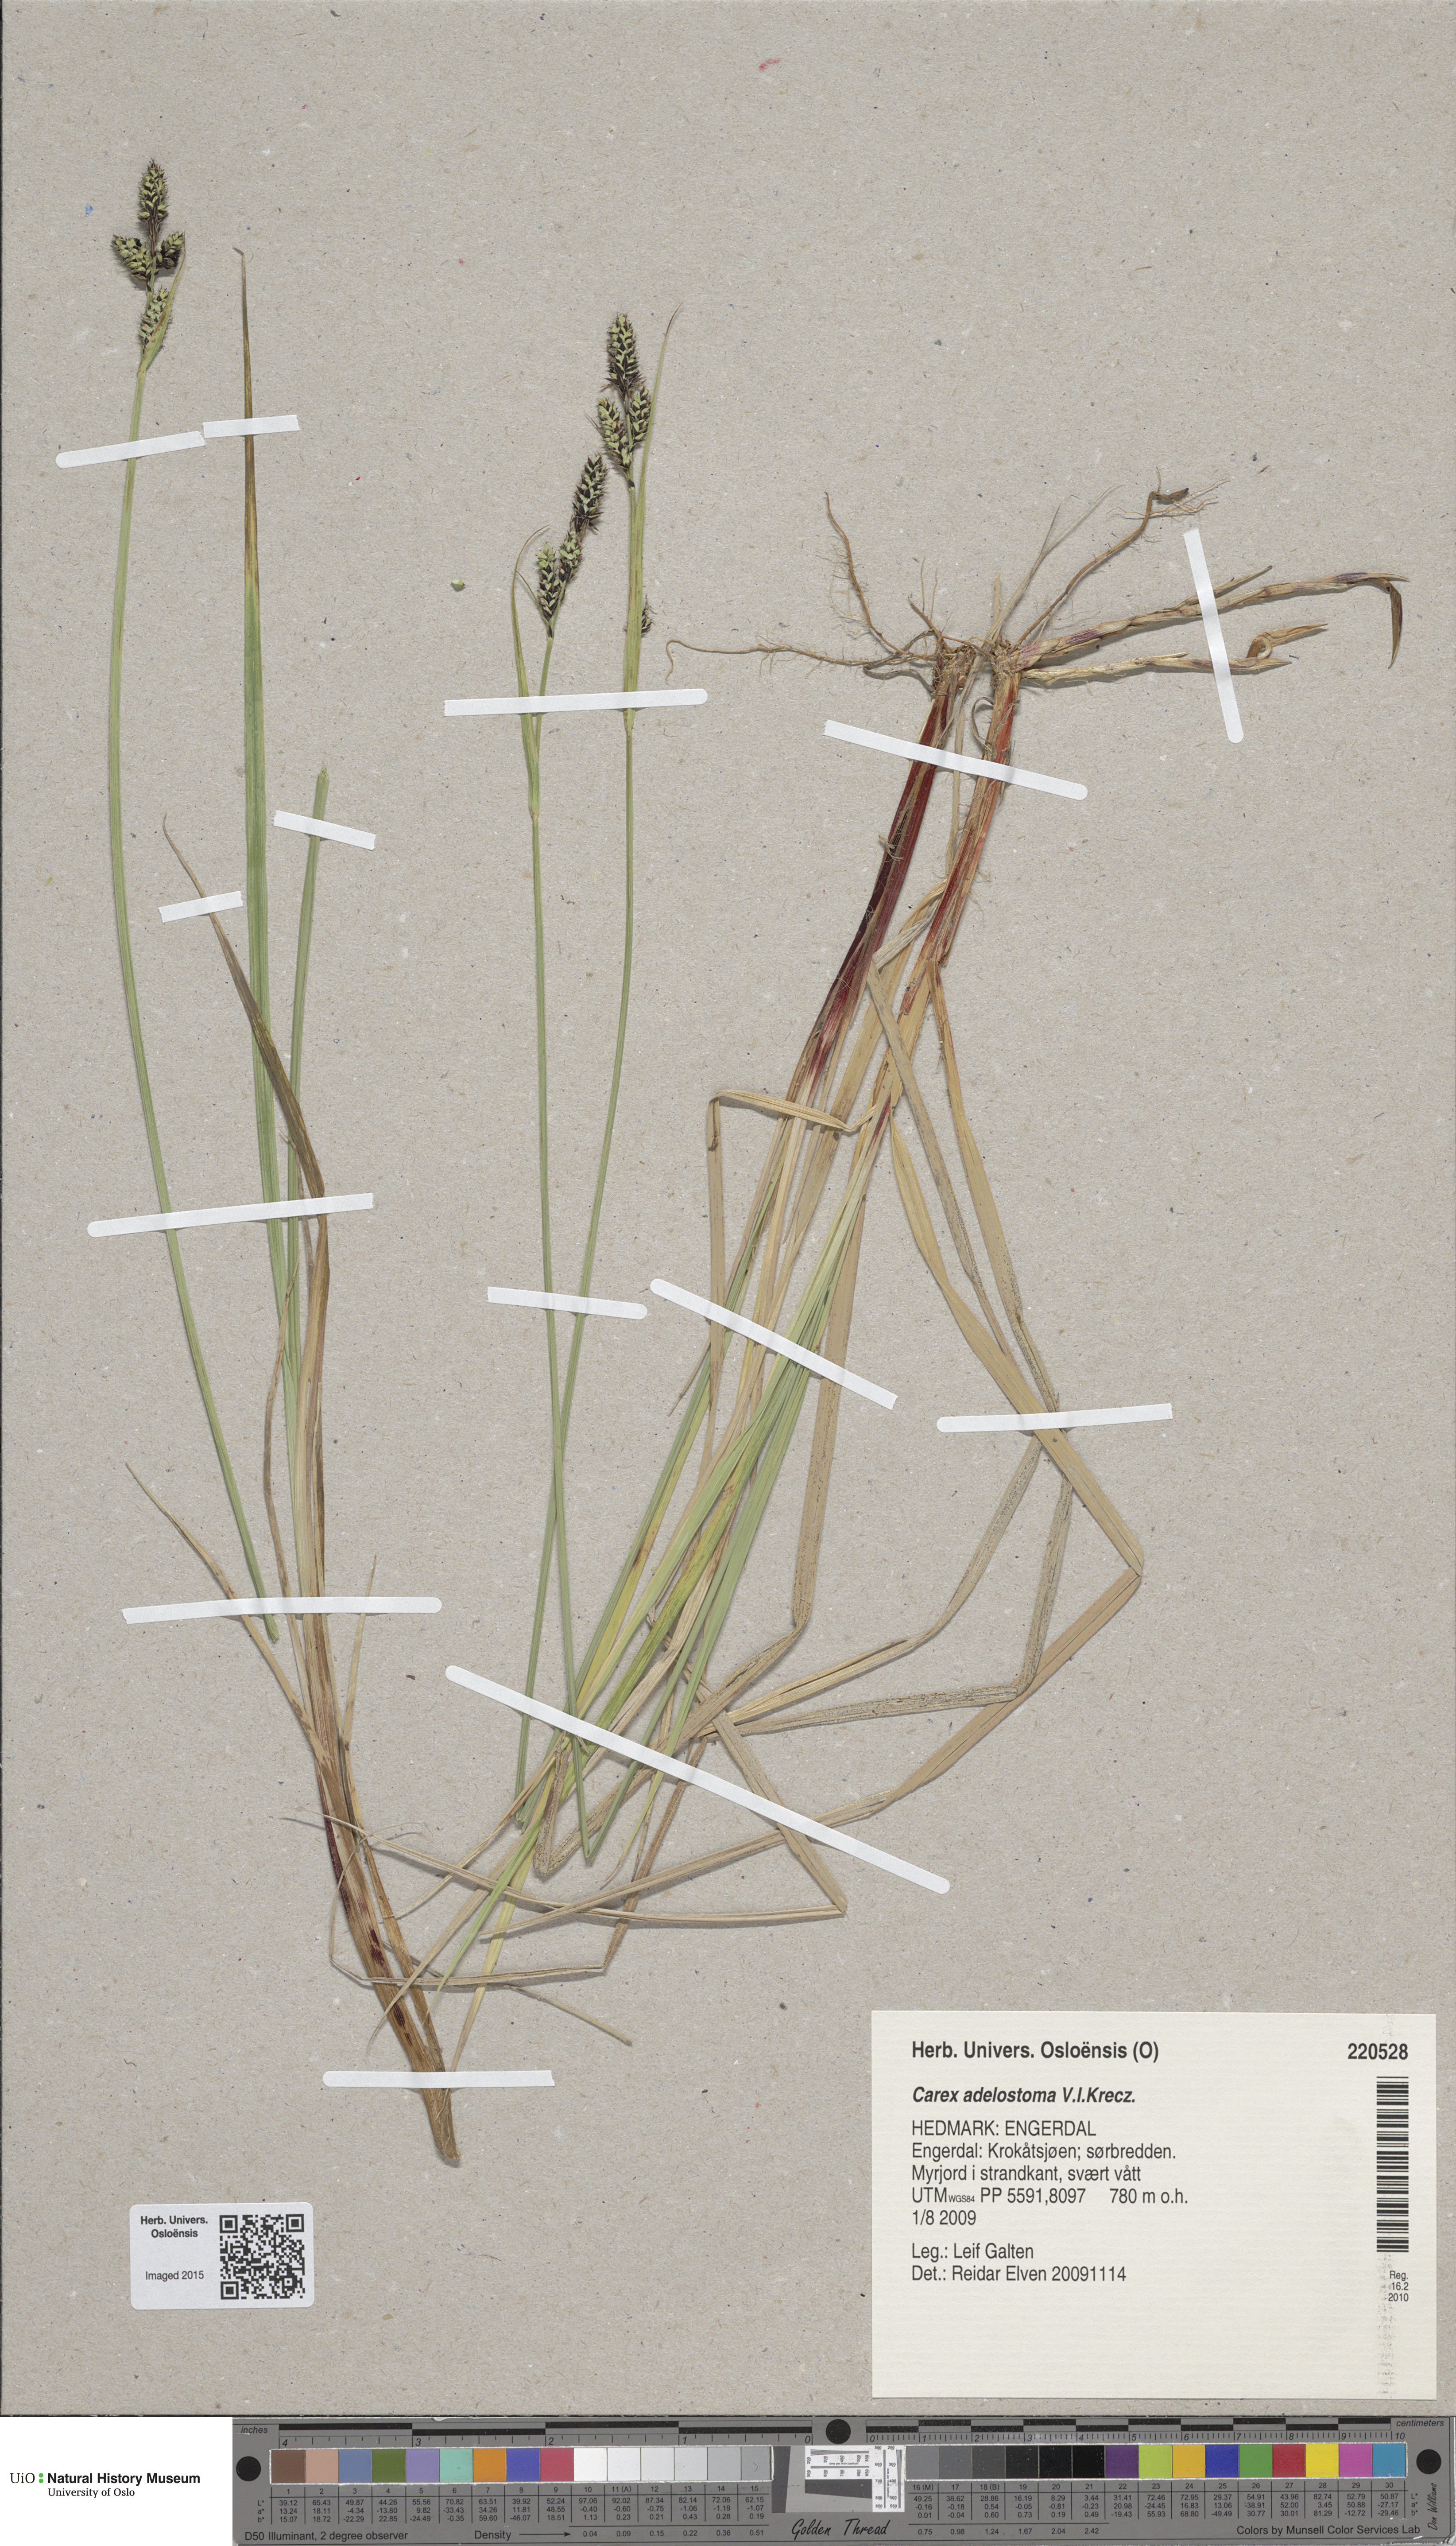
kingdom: Plantae
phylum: Tracheophyta
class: Liliopsida
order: Poales
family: Cyperaceae
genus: Carex
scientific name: Carex adelostoma
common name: Circumpolar sedge
